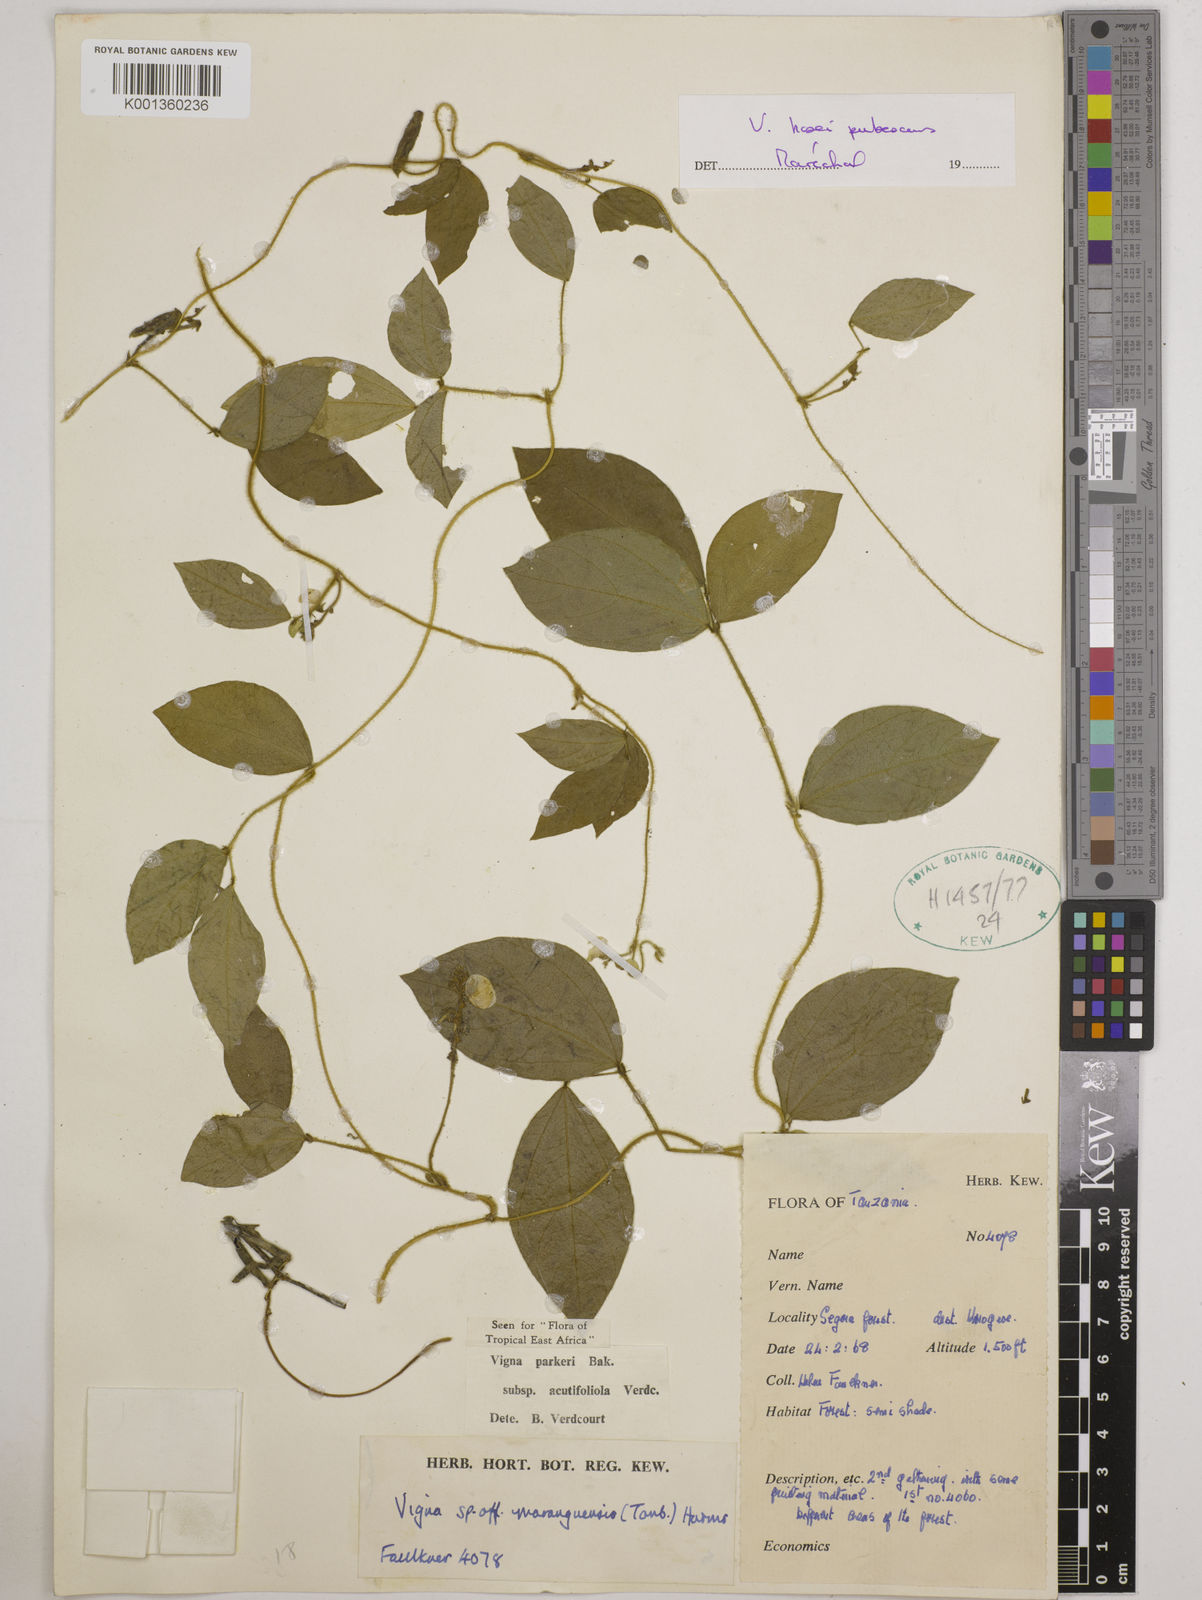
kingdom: Plantae
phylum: Tracheophyta
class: Magnoliopsida
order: Fabales
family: Fabaceae
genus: Vigna
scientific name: Vigna hosei
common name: Sarawak-bean
